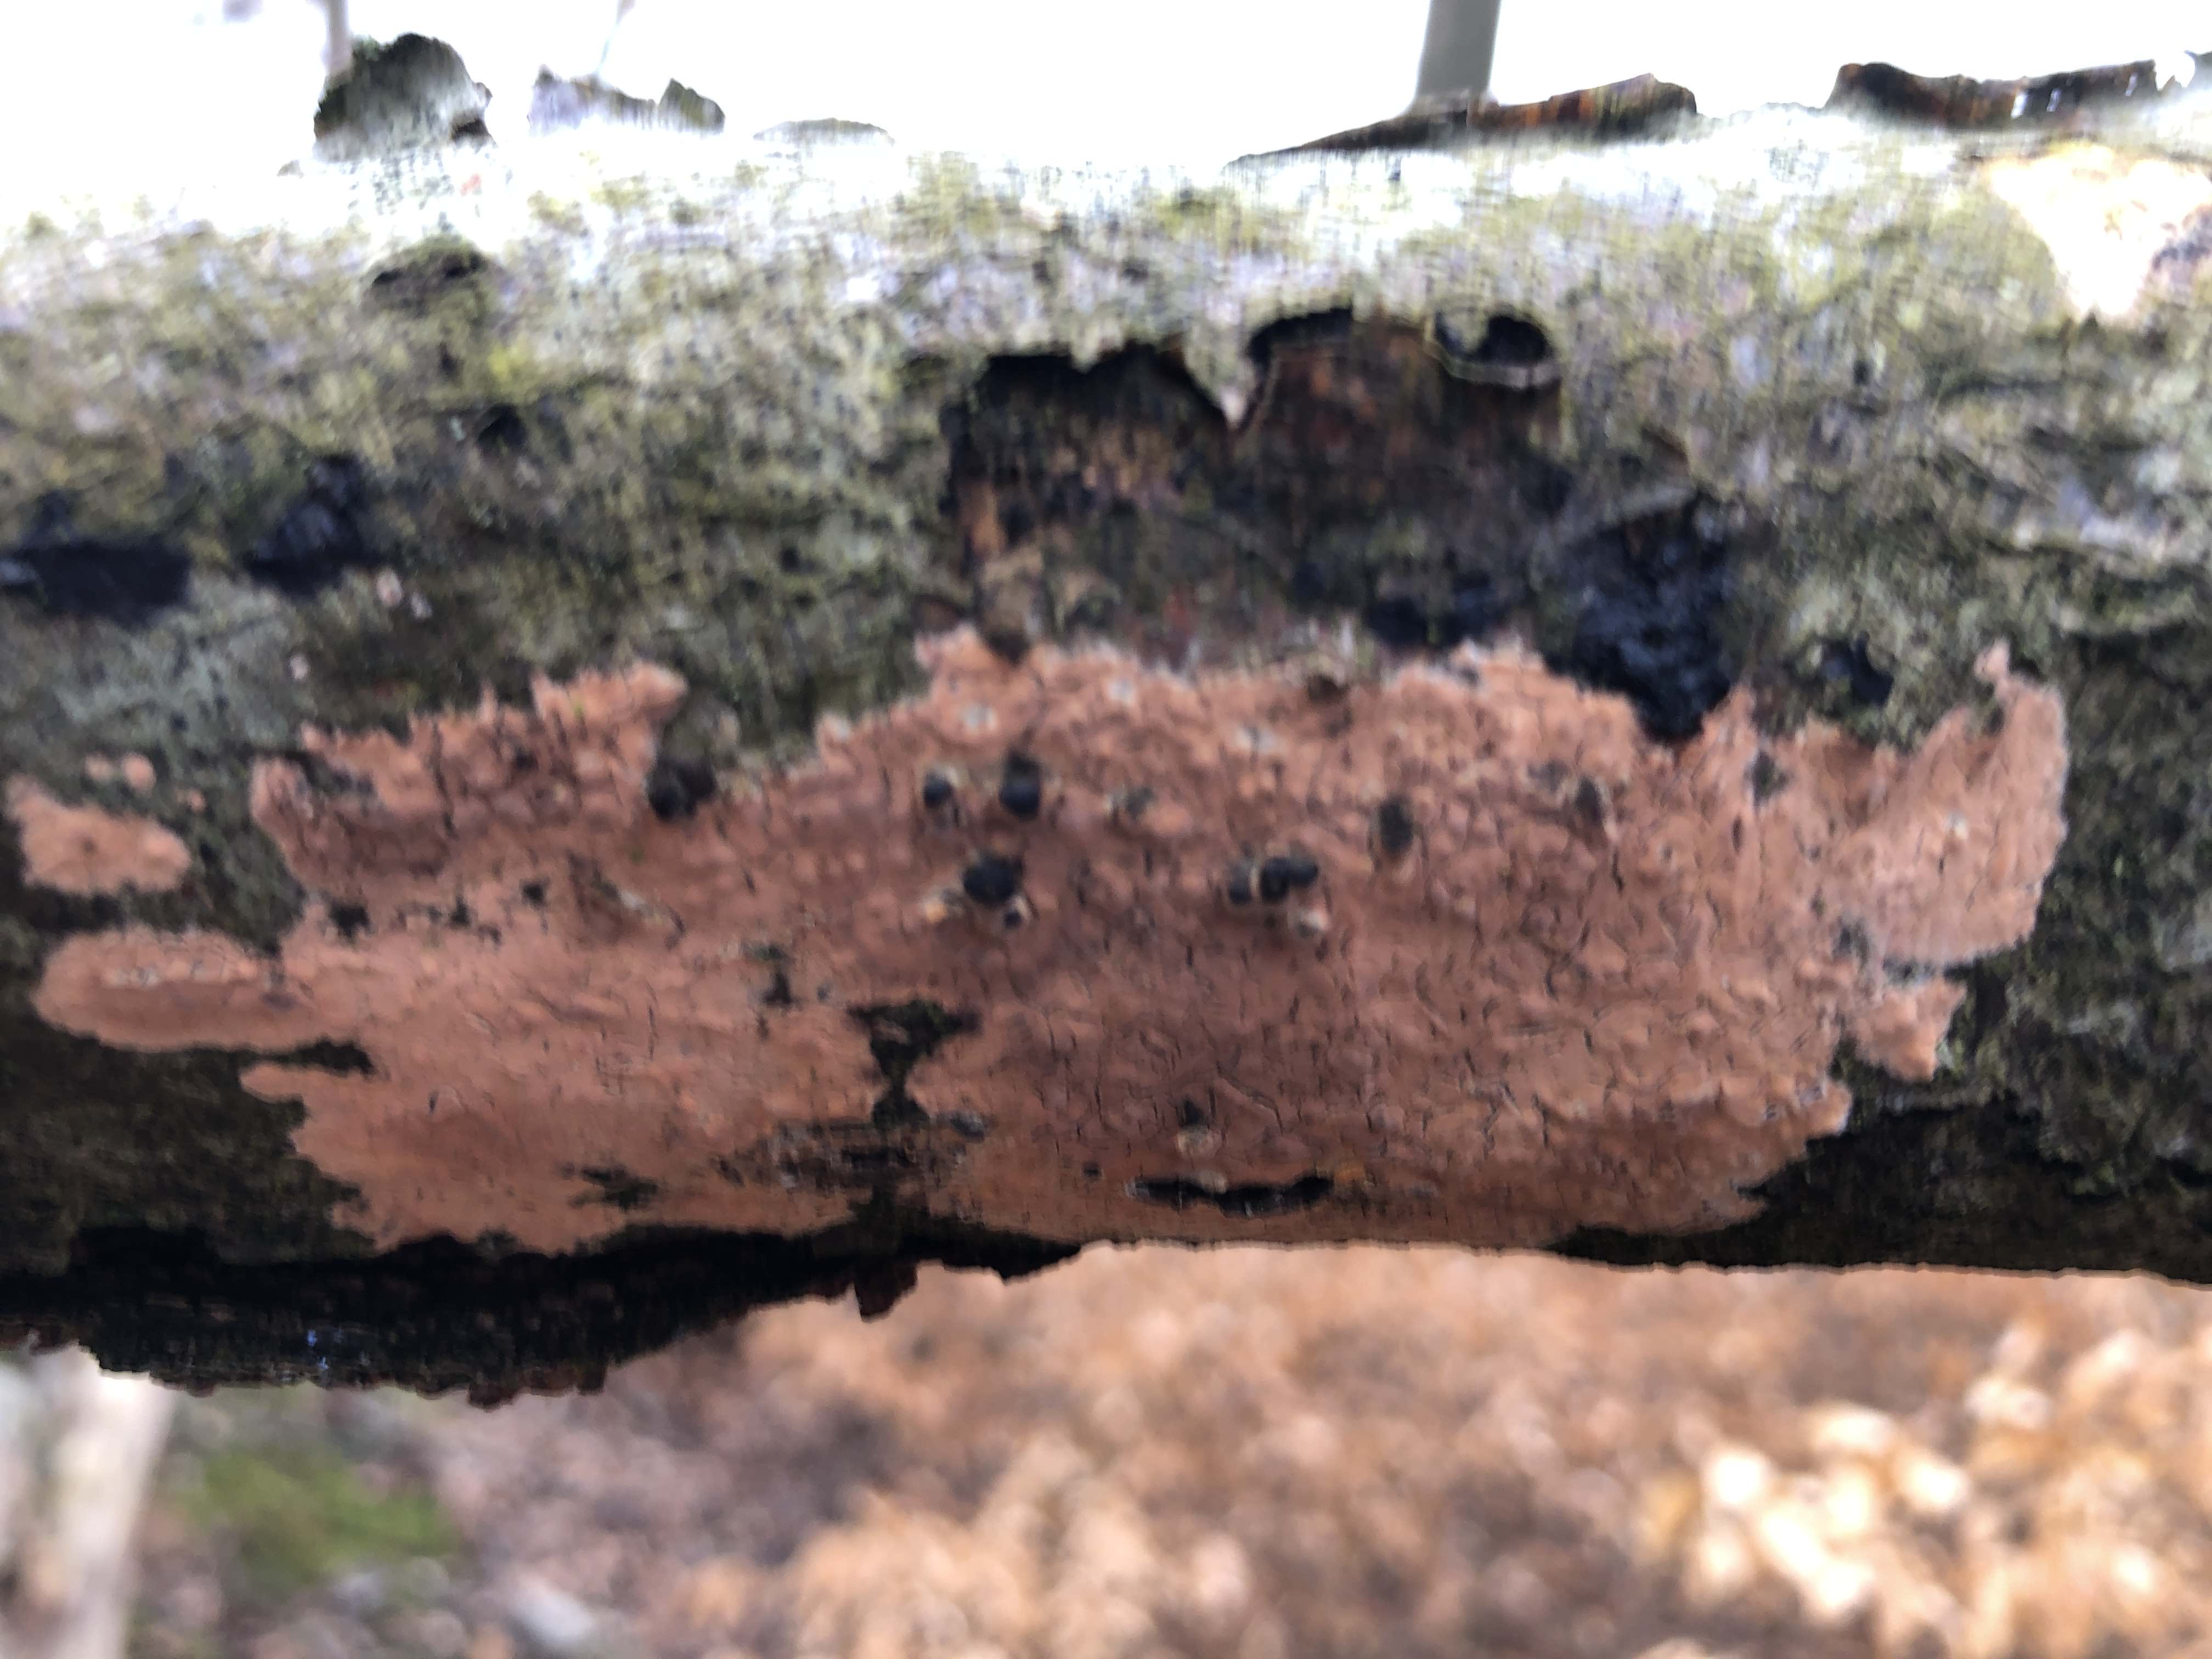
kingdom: Fungi
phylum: Basidiomycota
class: Agaricomycetes
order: Russulales
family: Peniophoraceae
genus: Peniophora
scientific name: Peniophora incarnata
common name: laksefarvet voksskind
